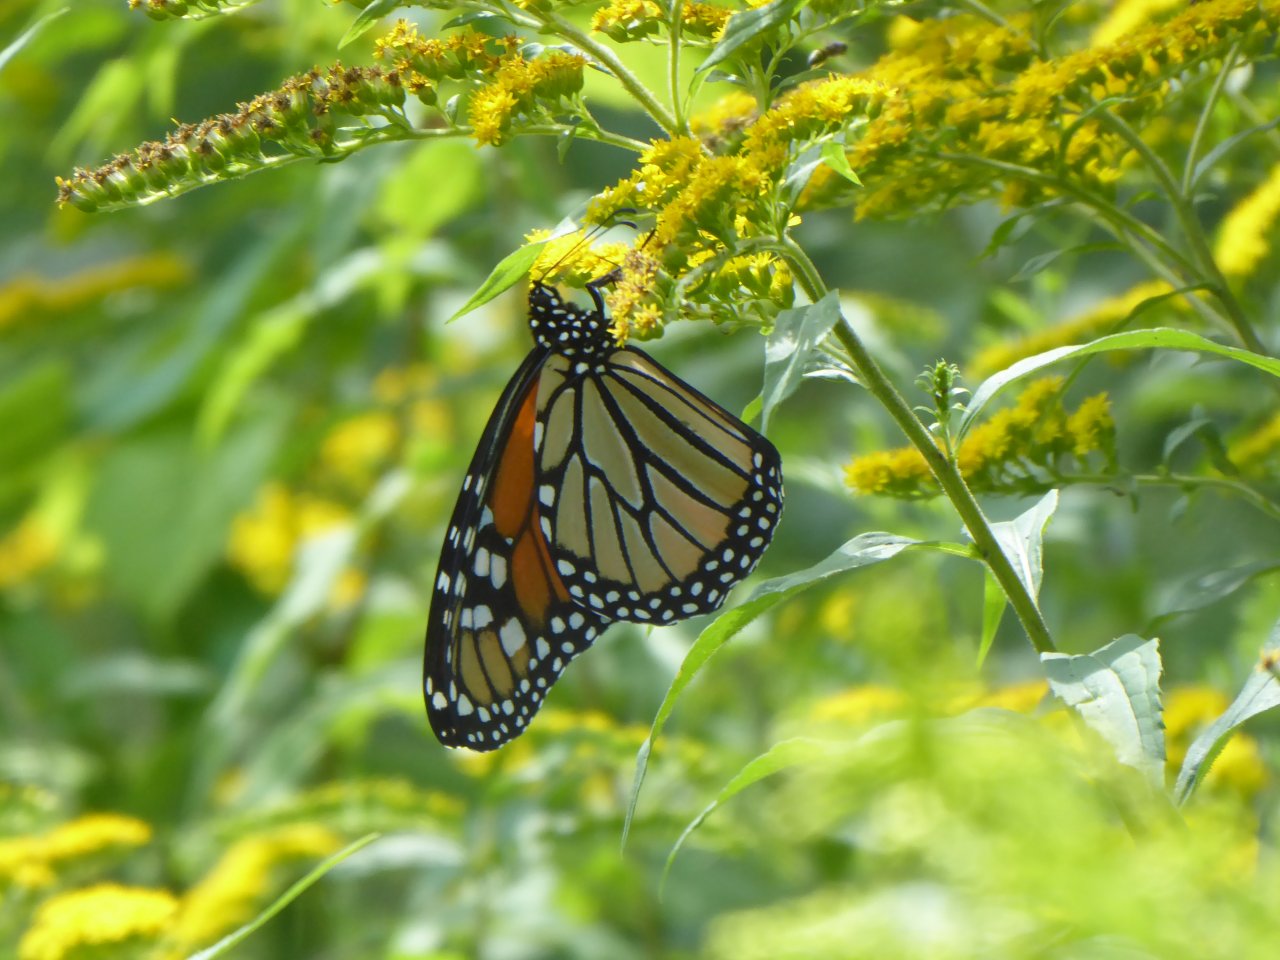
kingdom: Animalia
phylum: Arthropoda
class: Insecta
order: Lepidoptera
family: Nymphalidae
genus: Danaus
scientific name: Danaus plexippus
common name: Monarch
